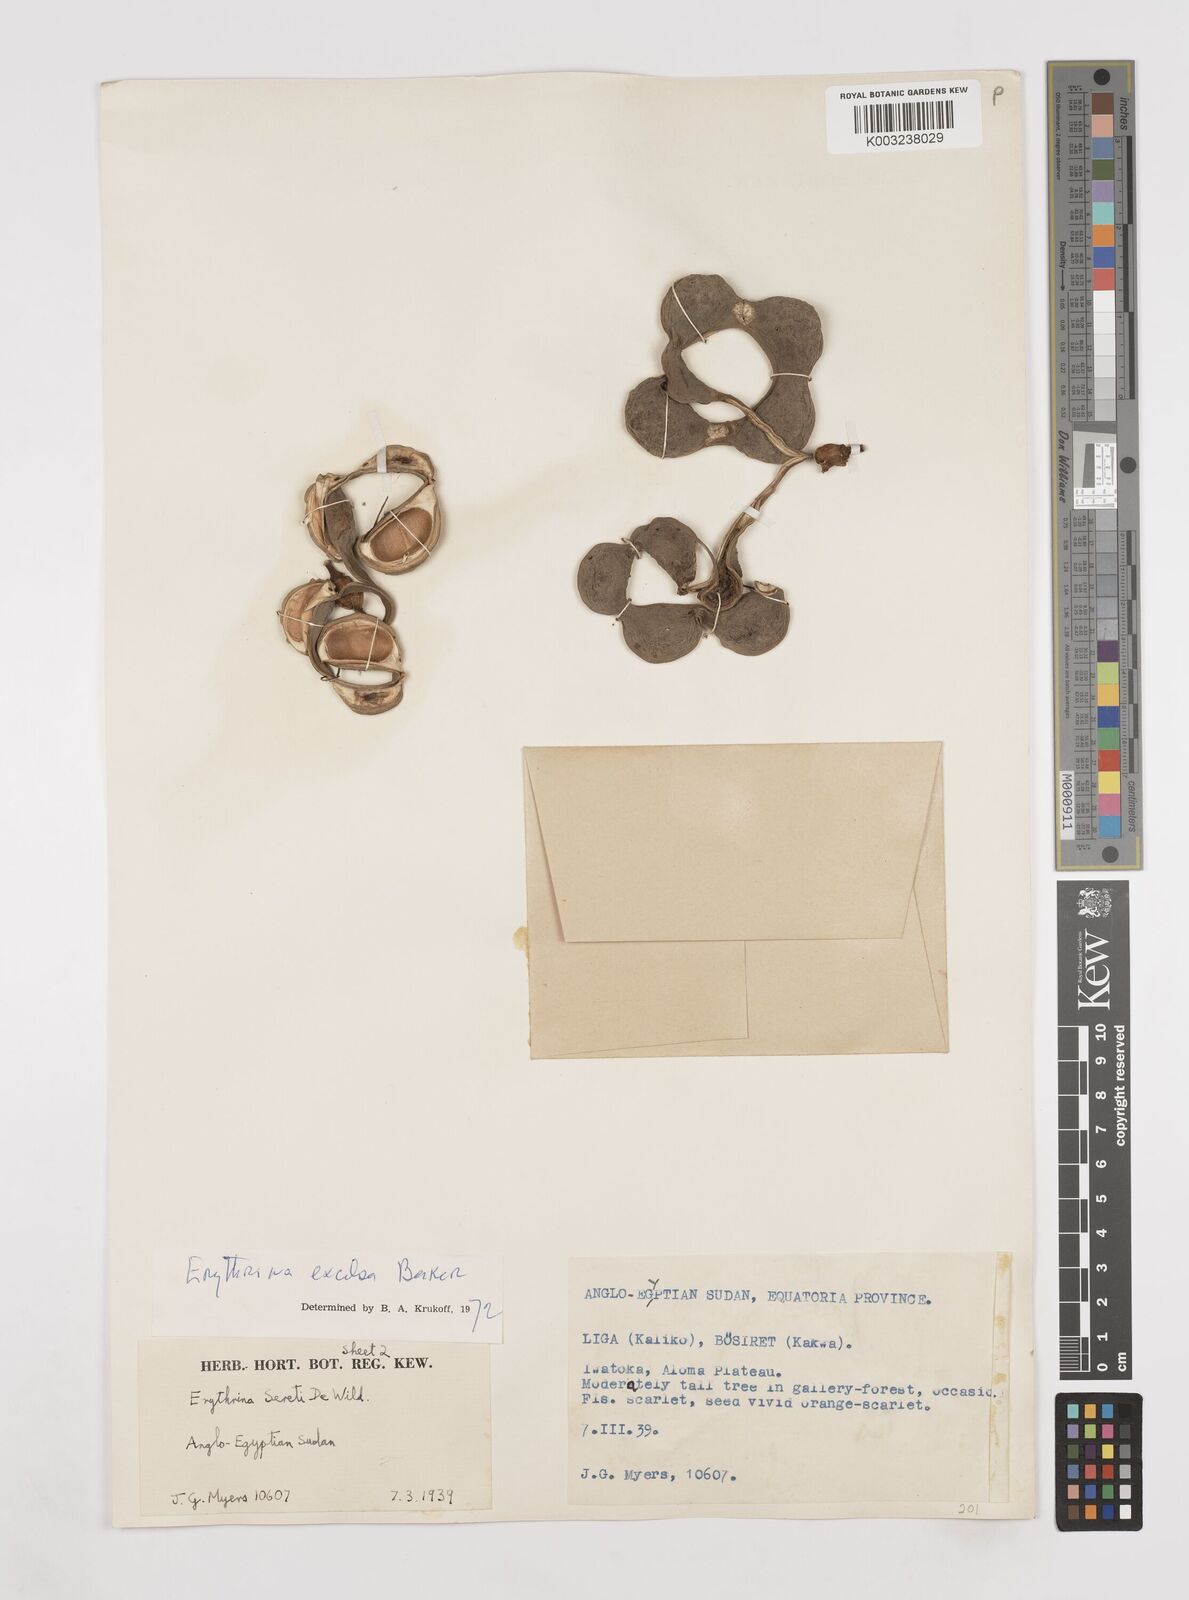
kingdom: Plantae
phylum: Tracheophyta
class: Magnoliopsida
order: Fabales
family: Fabaceae
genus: Erythrina
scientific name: Erythrina excelsa
